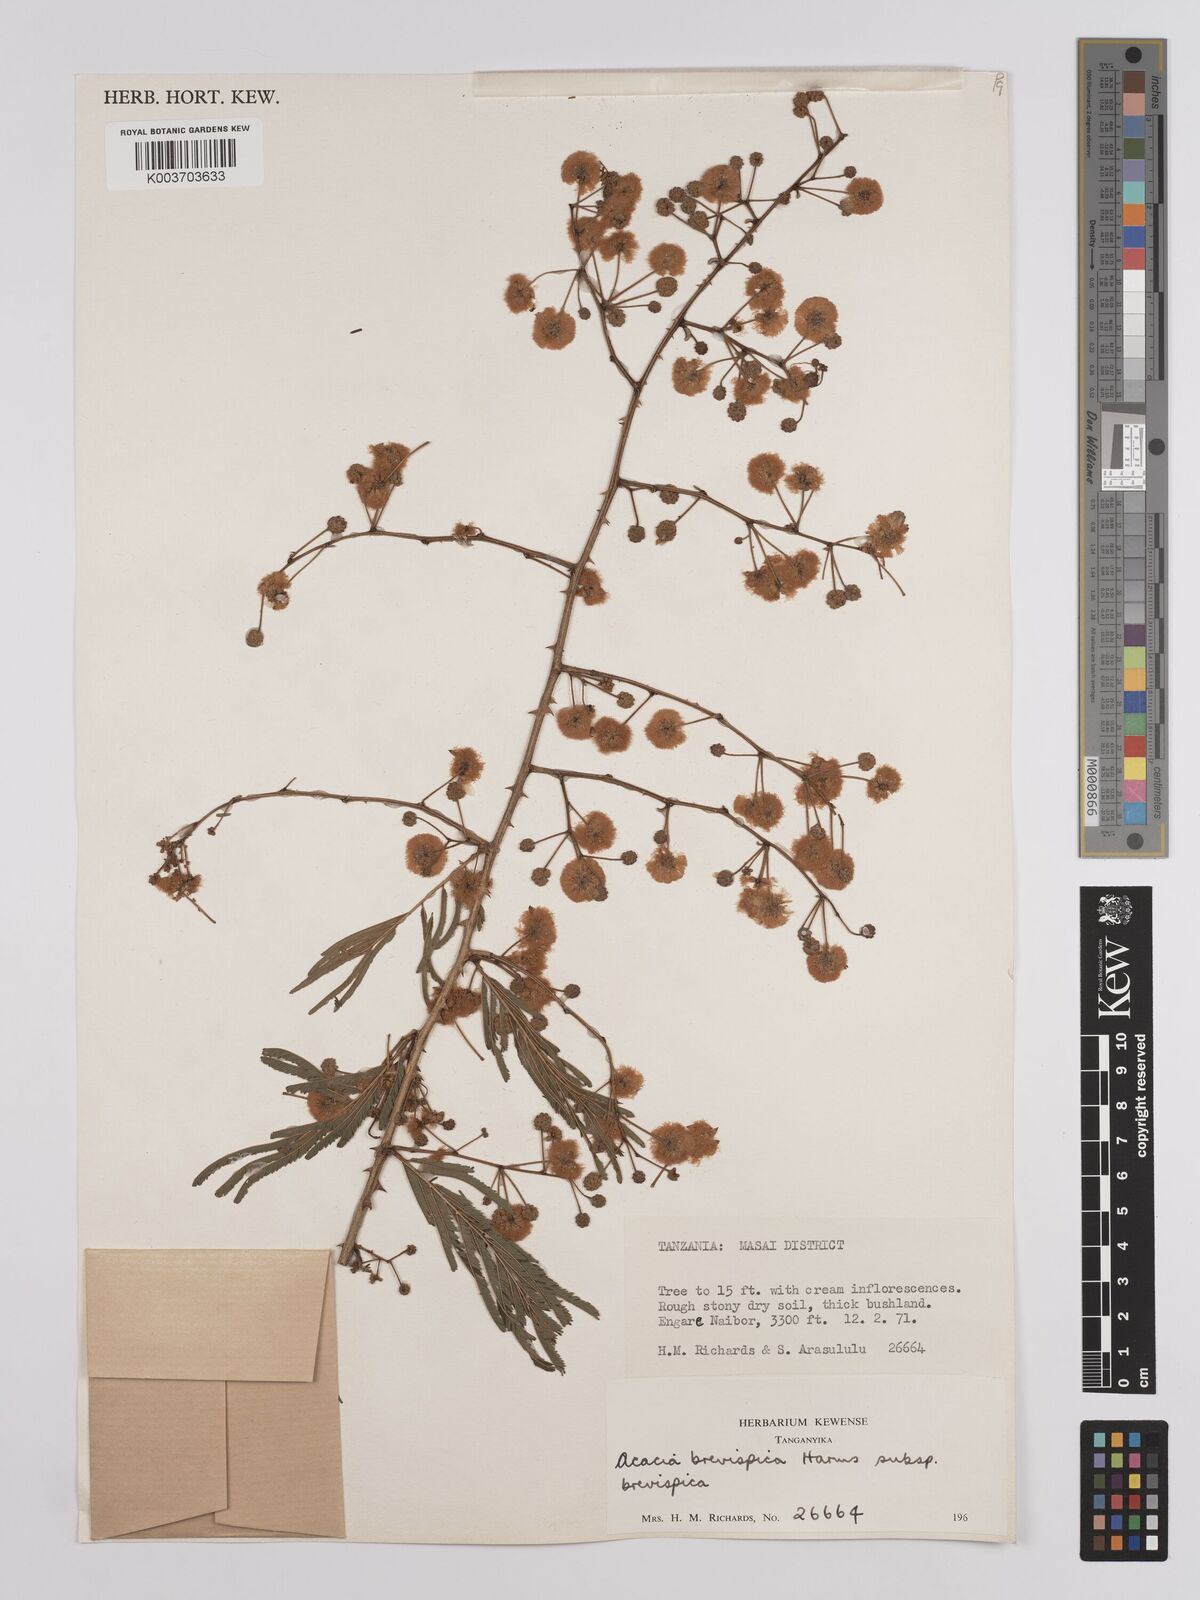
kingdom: Plantae
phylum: Tracheophyta
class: Magnoliopsida
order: Fabales
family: Fabaceae
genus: Senegalia
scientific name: Senegalia brevispica
